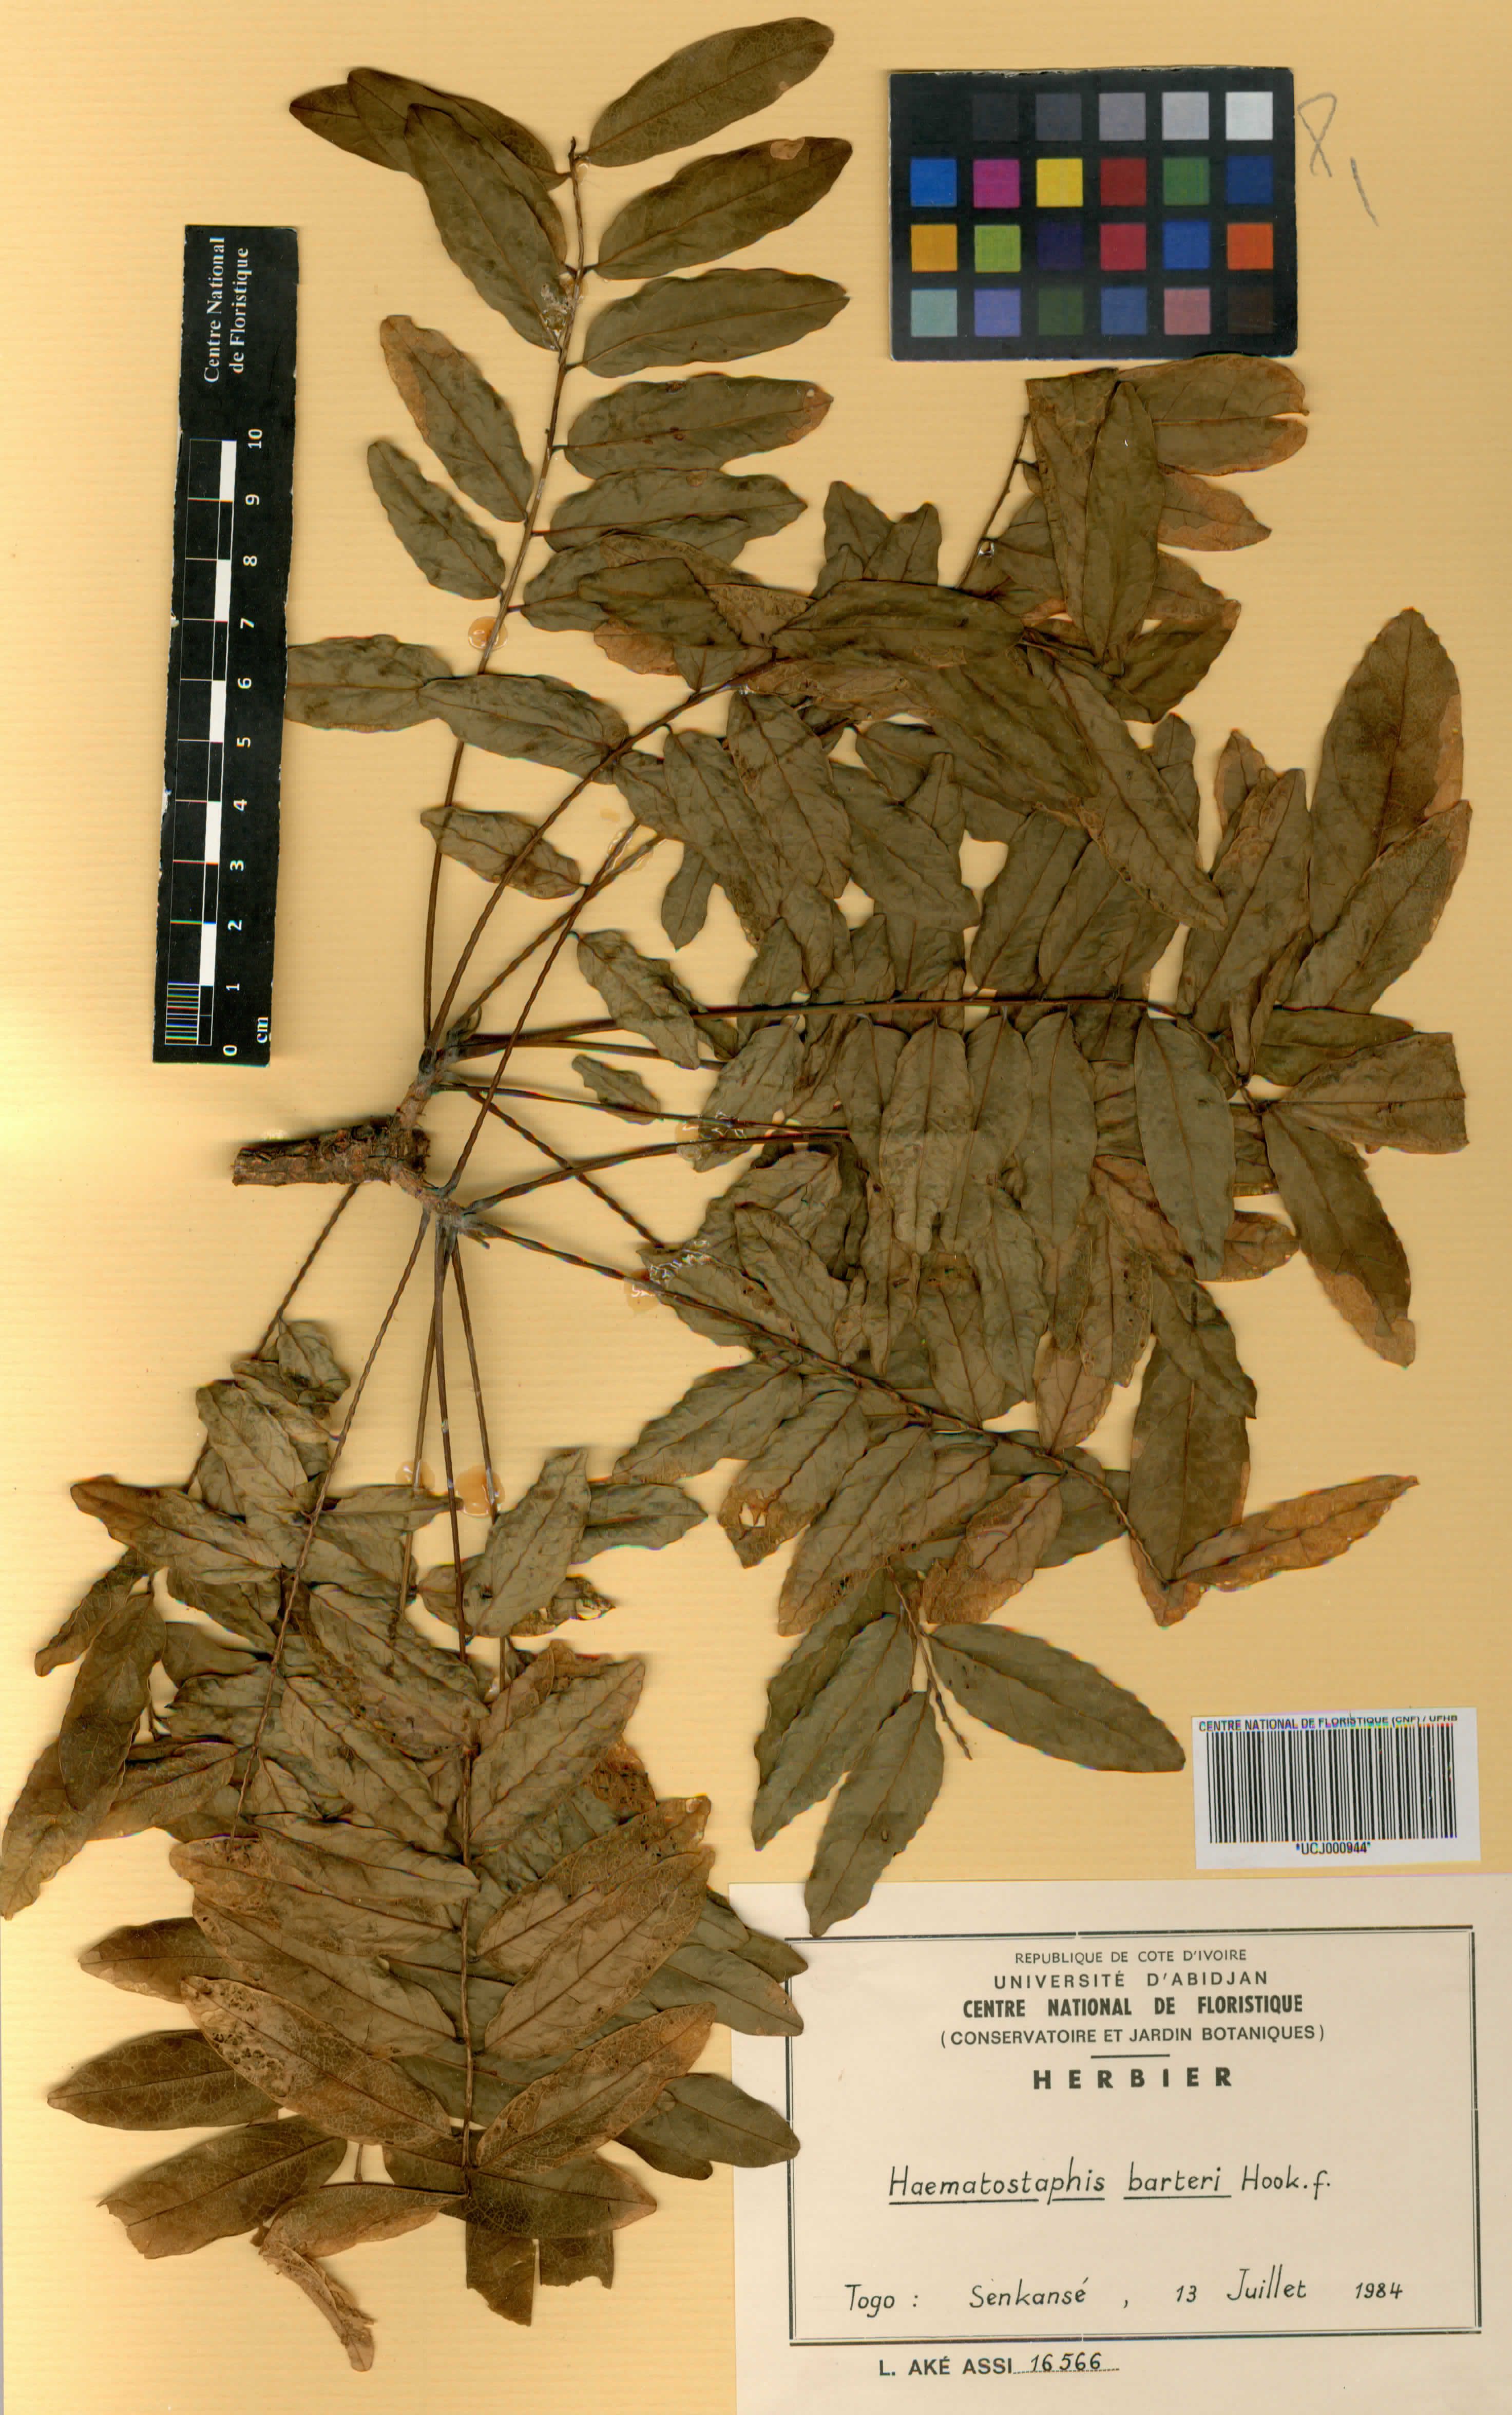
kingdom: Plantae
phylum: Tracheophyta
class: Magnoliopsida
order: Sapindales
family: Anacardiaceae
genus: Haematostaphis
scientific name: Haematostaphis barteri
